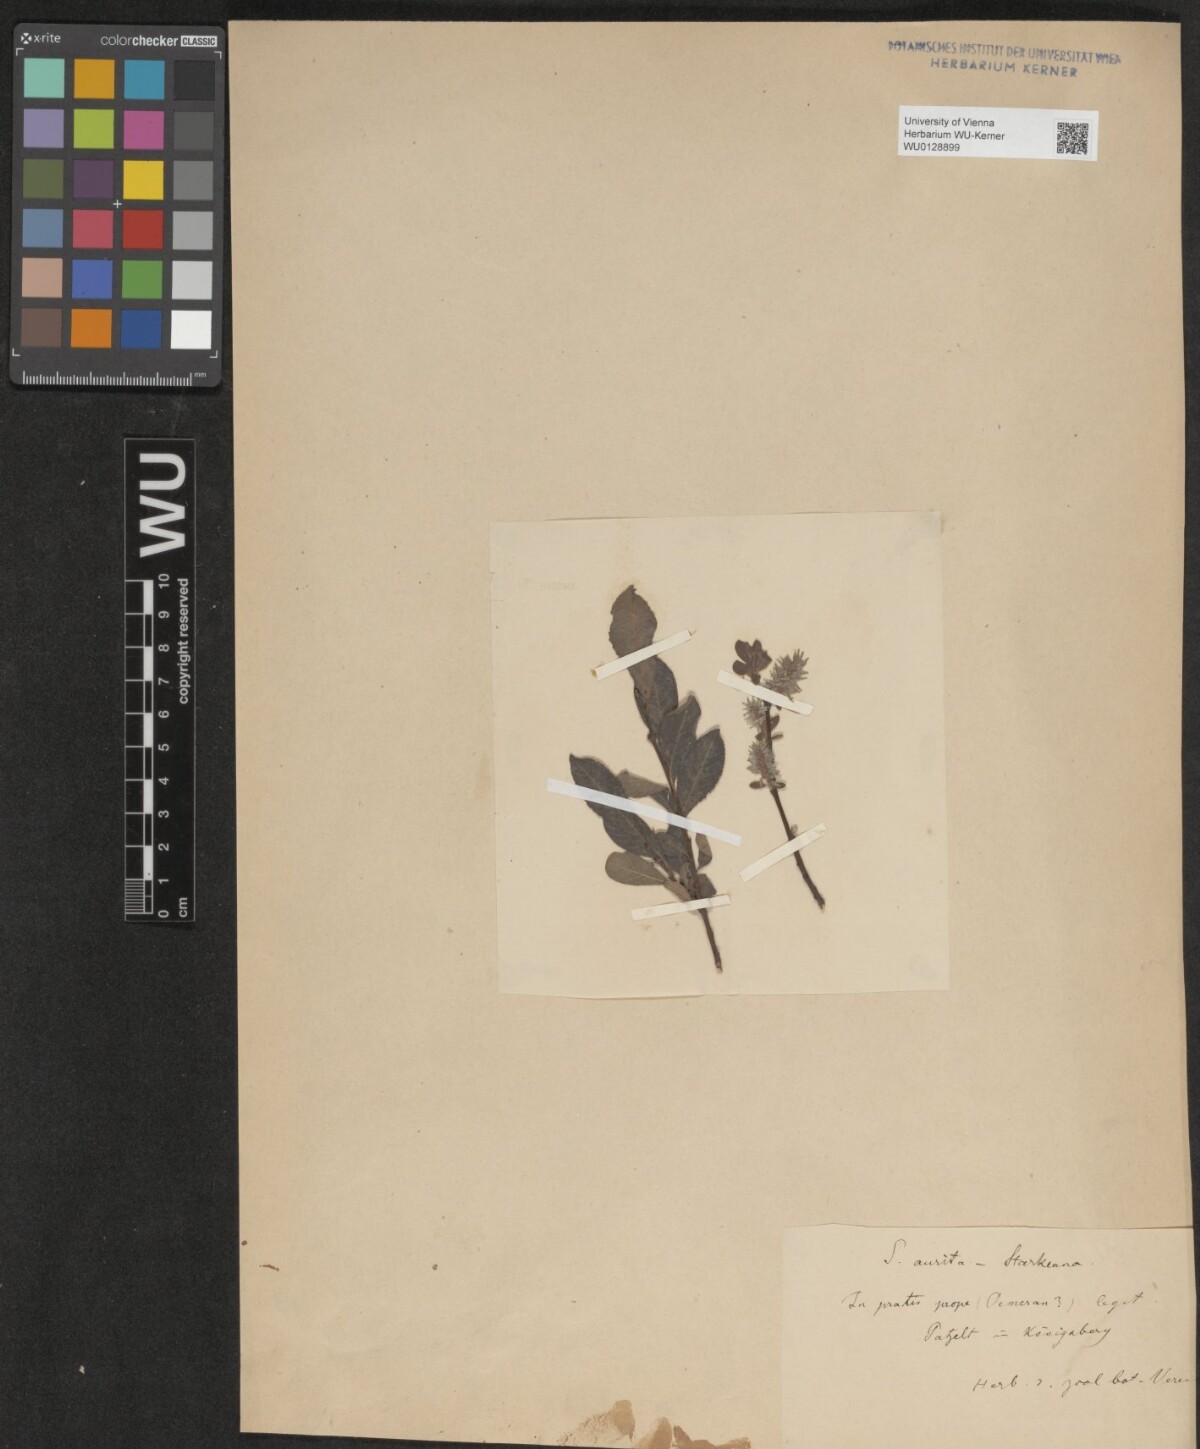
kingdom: Plantae
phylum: Tracheophyta
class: Magnoliopsida
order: Malpighiales
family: Salicaceae
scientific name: Salicaceae
